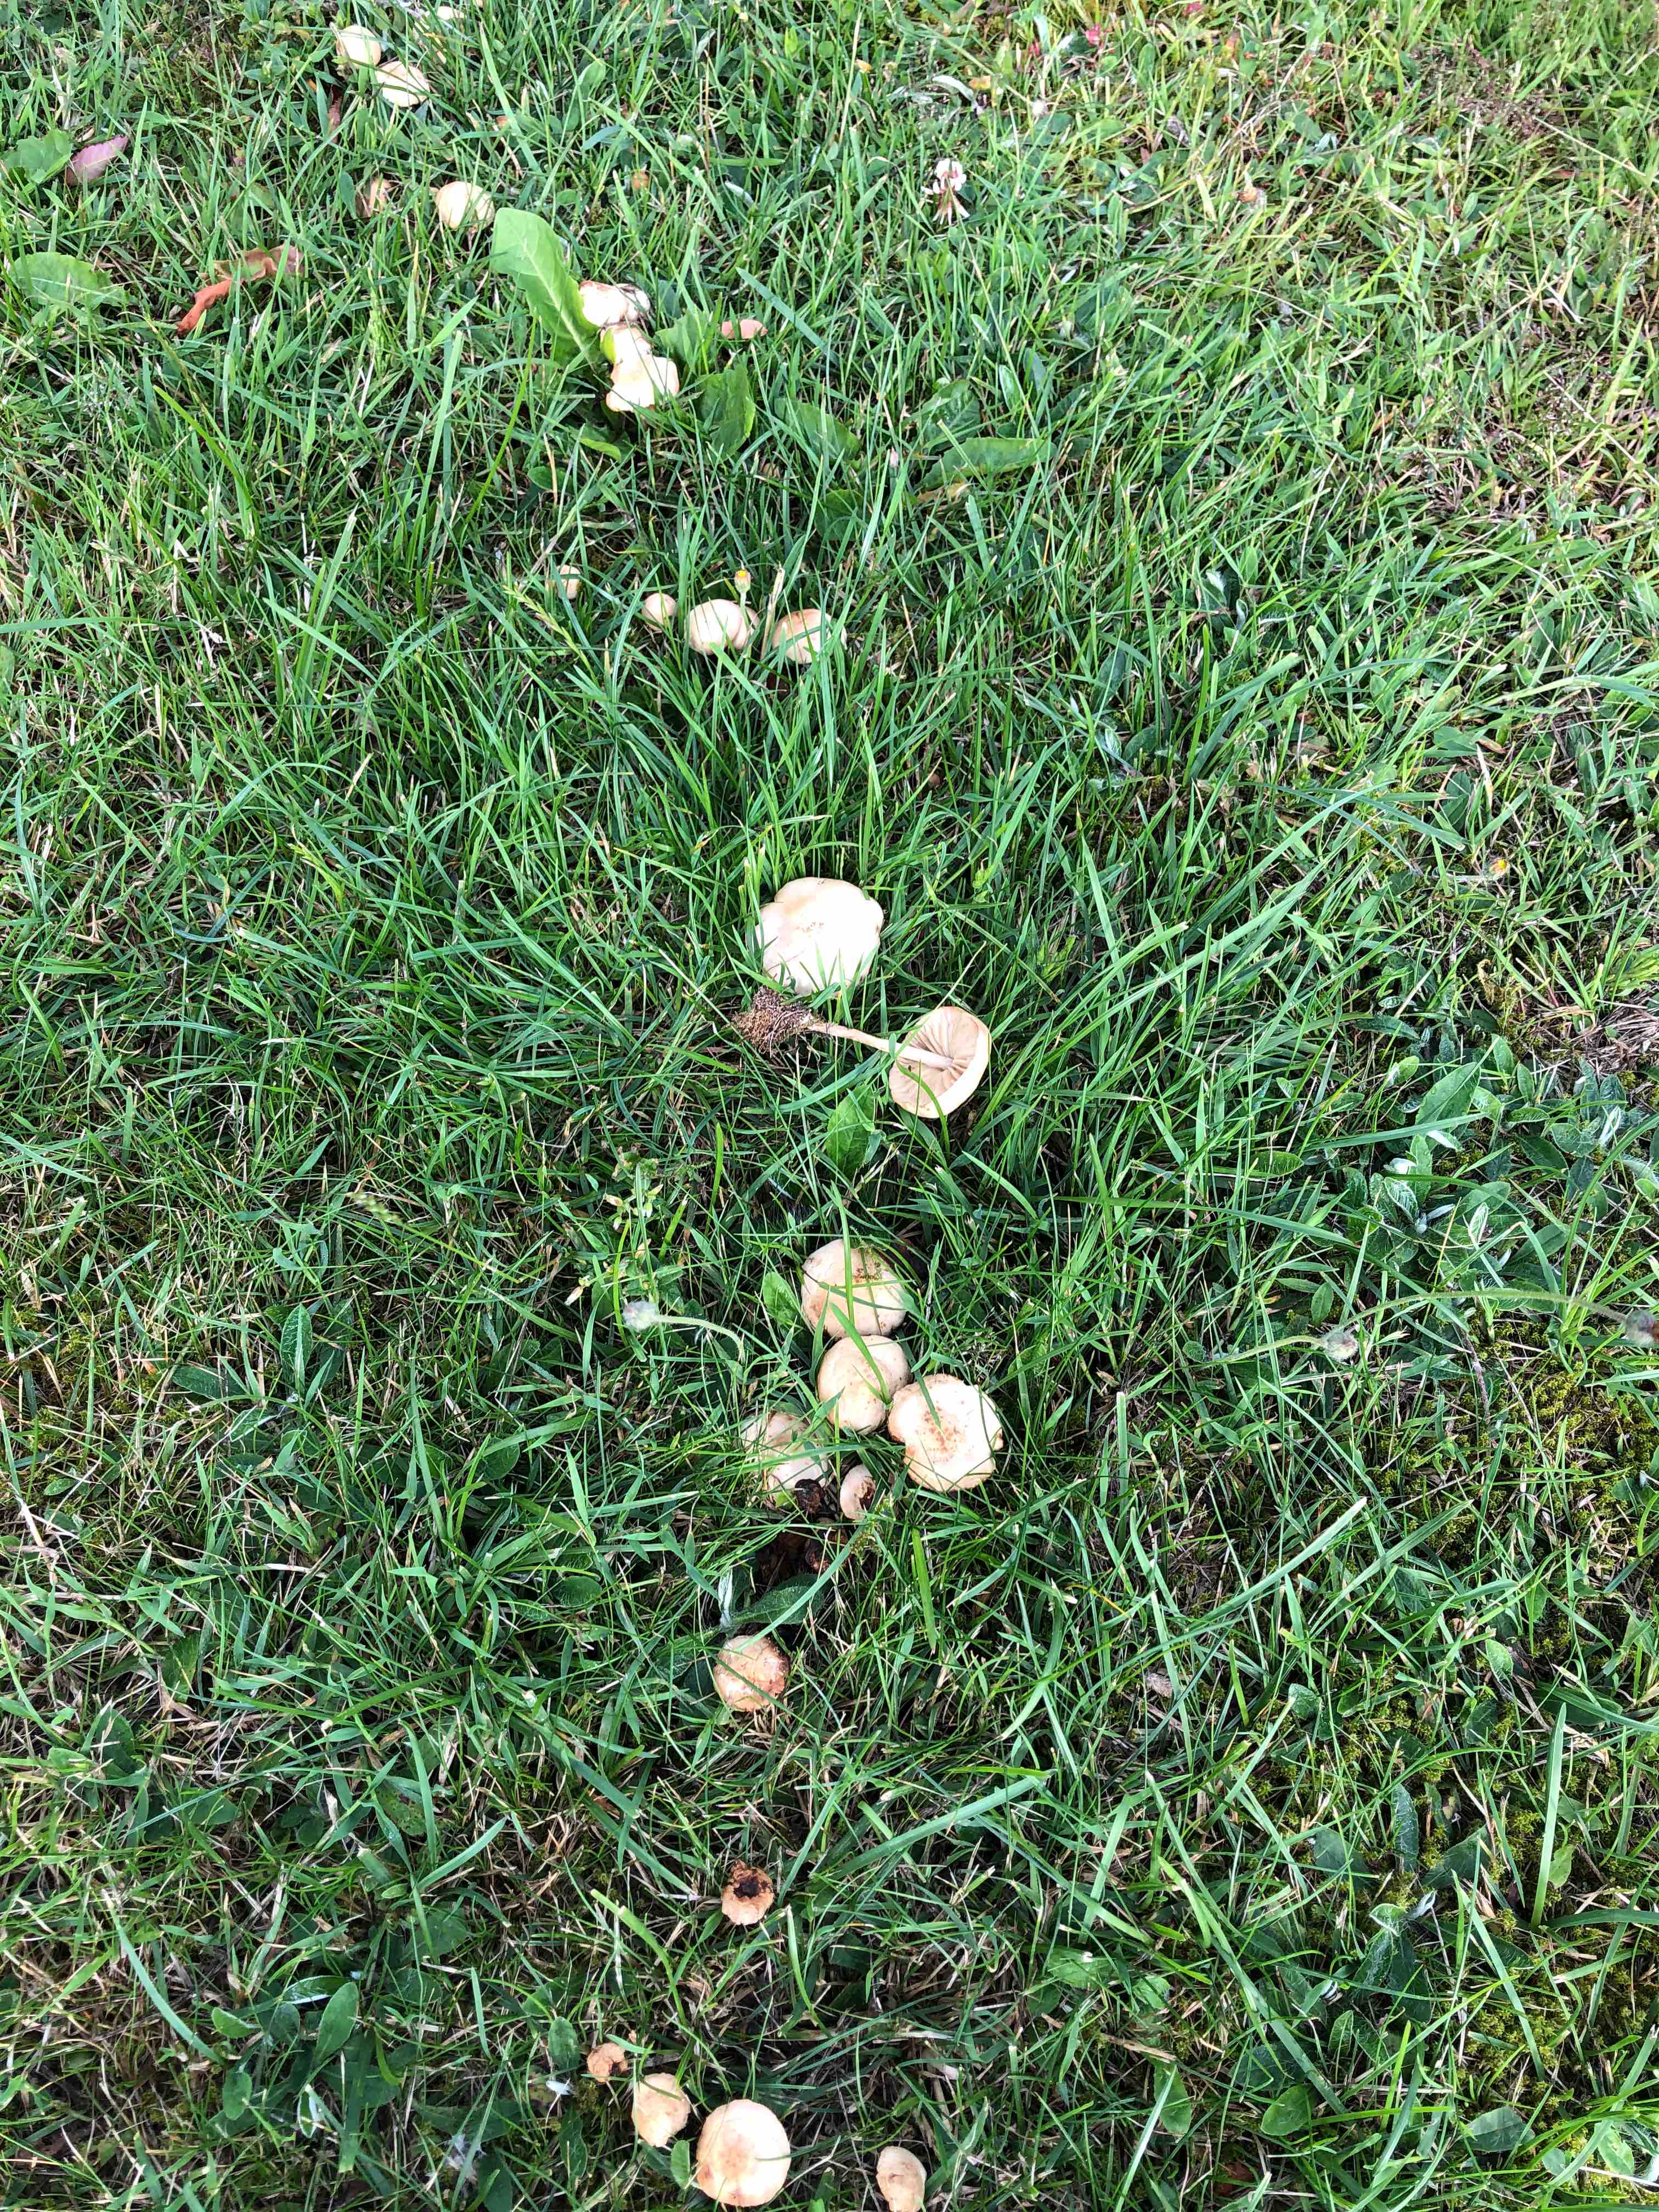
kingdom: Fungi
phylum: Basidiomycota
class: Agaricomycetes
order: Agaricales
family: Marasmiaceae
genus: Marasmius
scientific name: Marasmius oreades
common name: elledans-bruskhat
